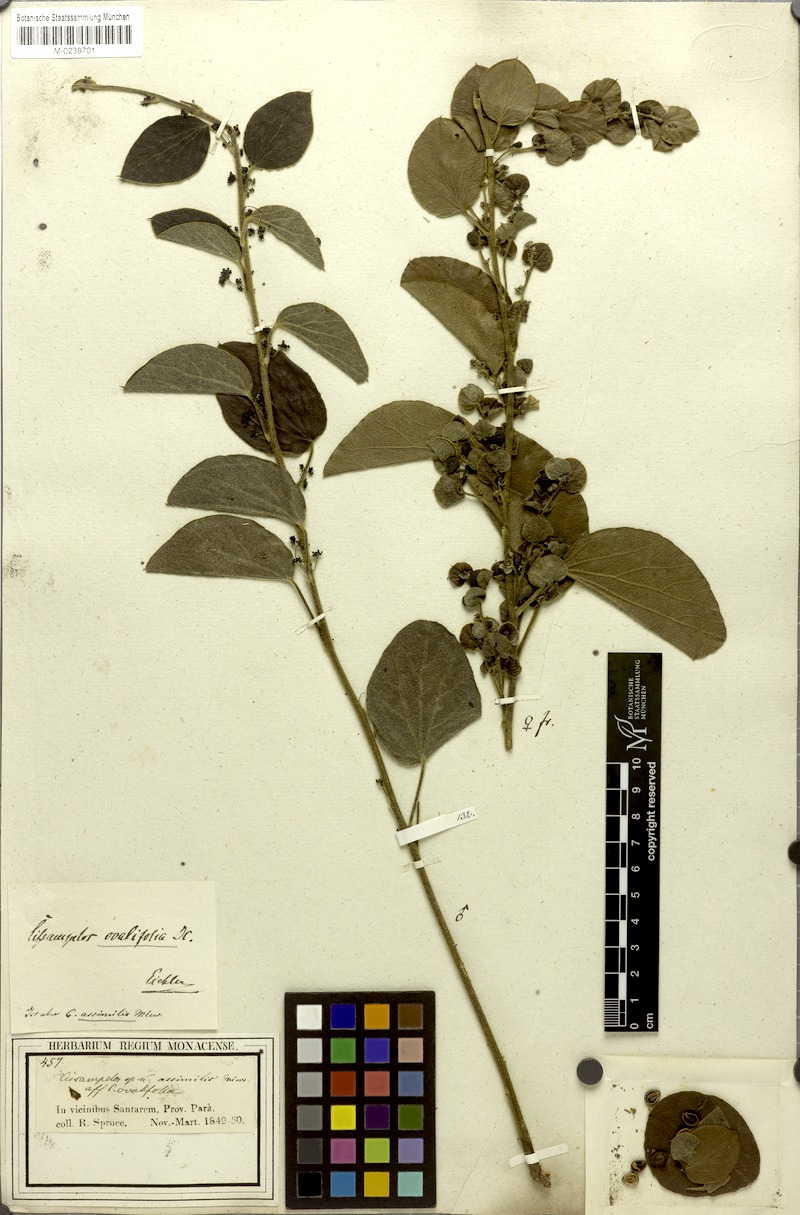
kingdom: Plantae
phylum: Tracheophyta
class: Magnoliopsida
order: Ranunculales
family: Menispermaceae
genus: Cissampelos
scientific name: Cissampelos ovalifolia
